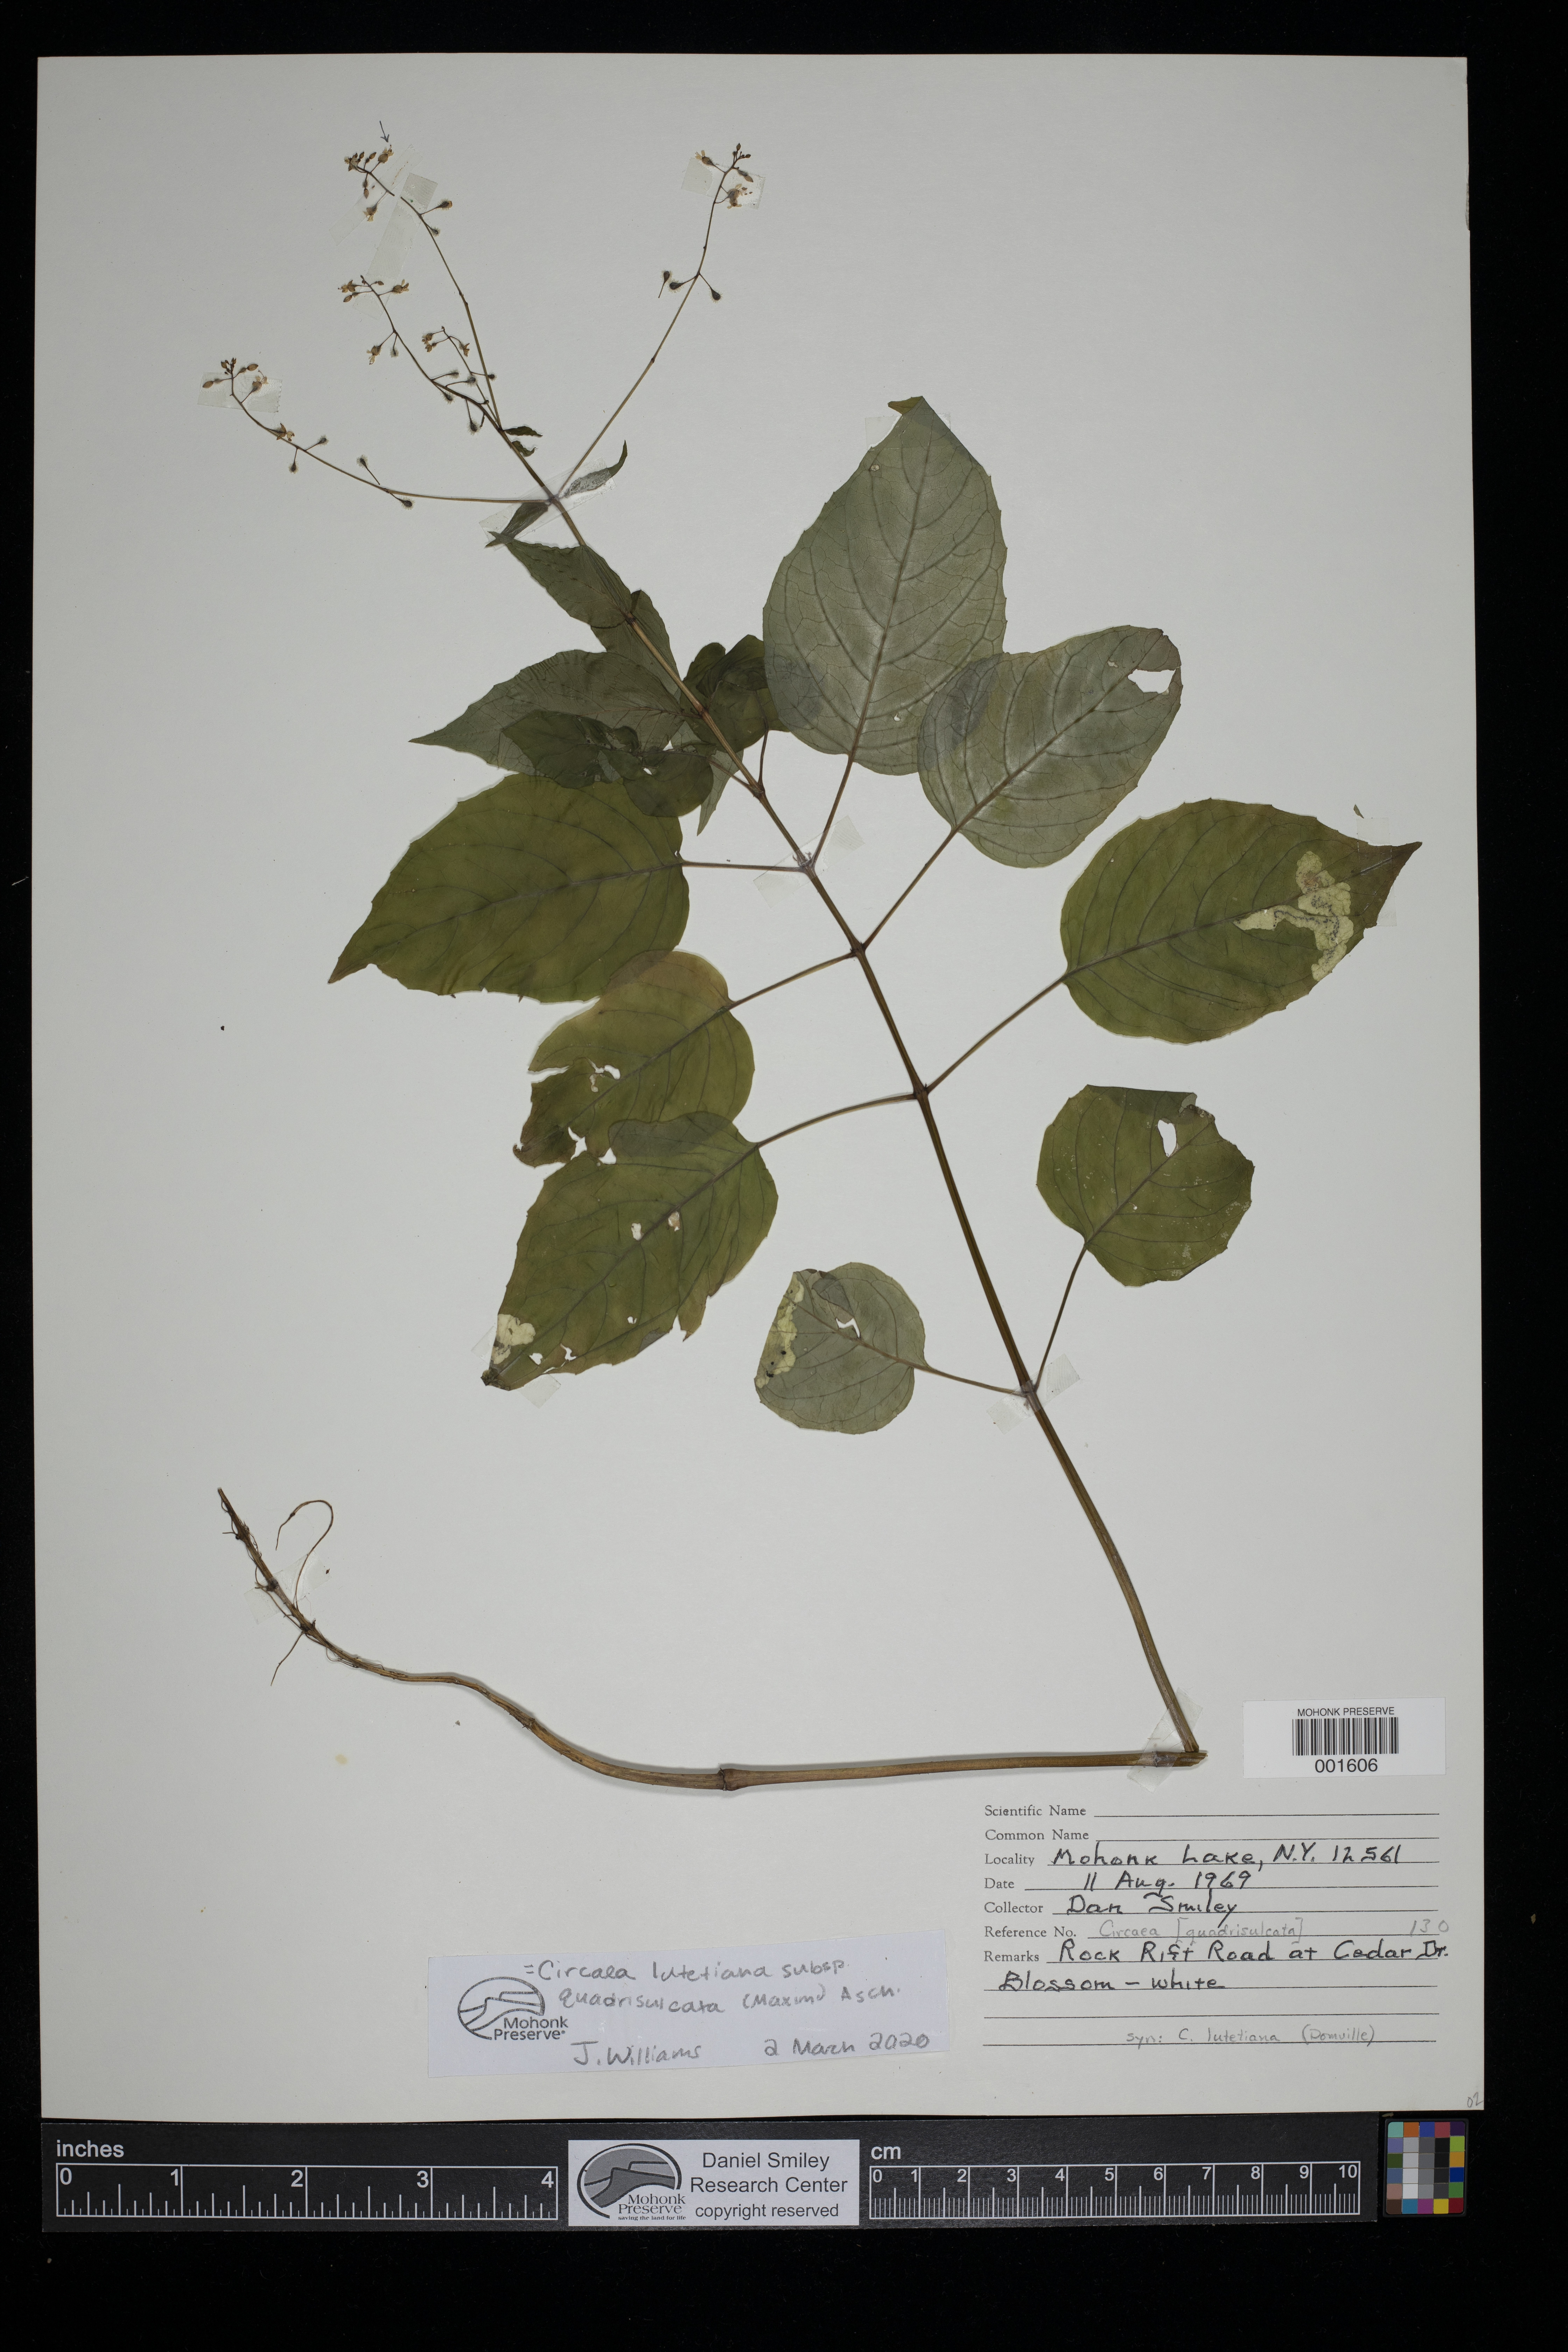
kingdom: Plantae
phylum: Tracheophyta
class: Magnoliopsida
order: Myrtales
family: Onagraceae
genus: Circaea
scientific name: Circaea canadensis
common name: Broad-leaved enchanter's nightshade
